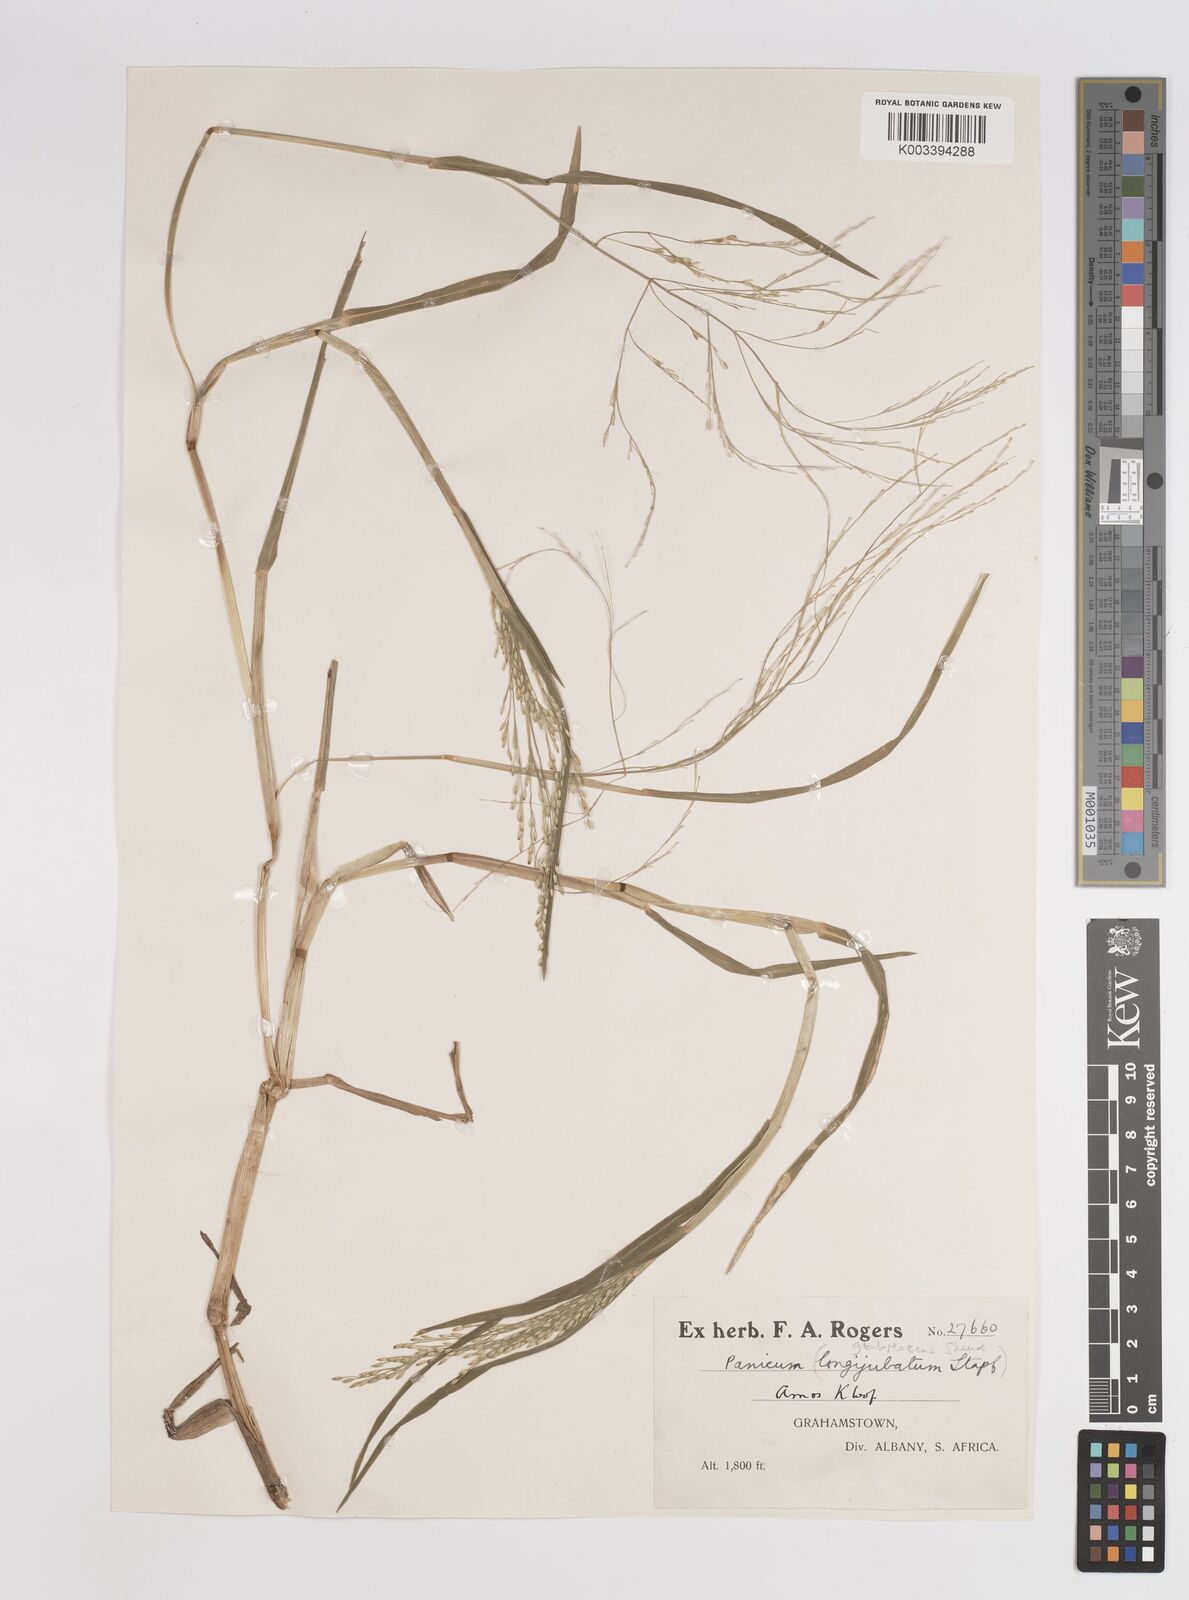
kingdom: Plantae
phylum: Tracheophyta
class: Liliopsida
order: Poales
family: Poaceae
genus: Panicum
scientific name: Panicum subalbidum
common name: Elbow buffalo grass
